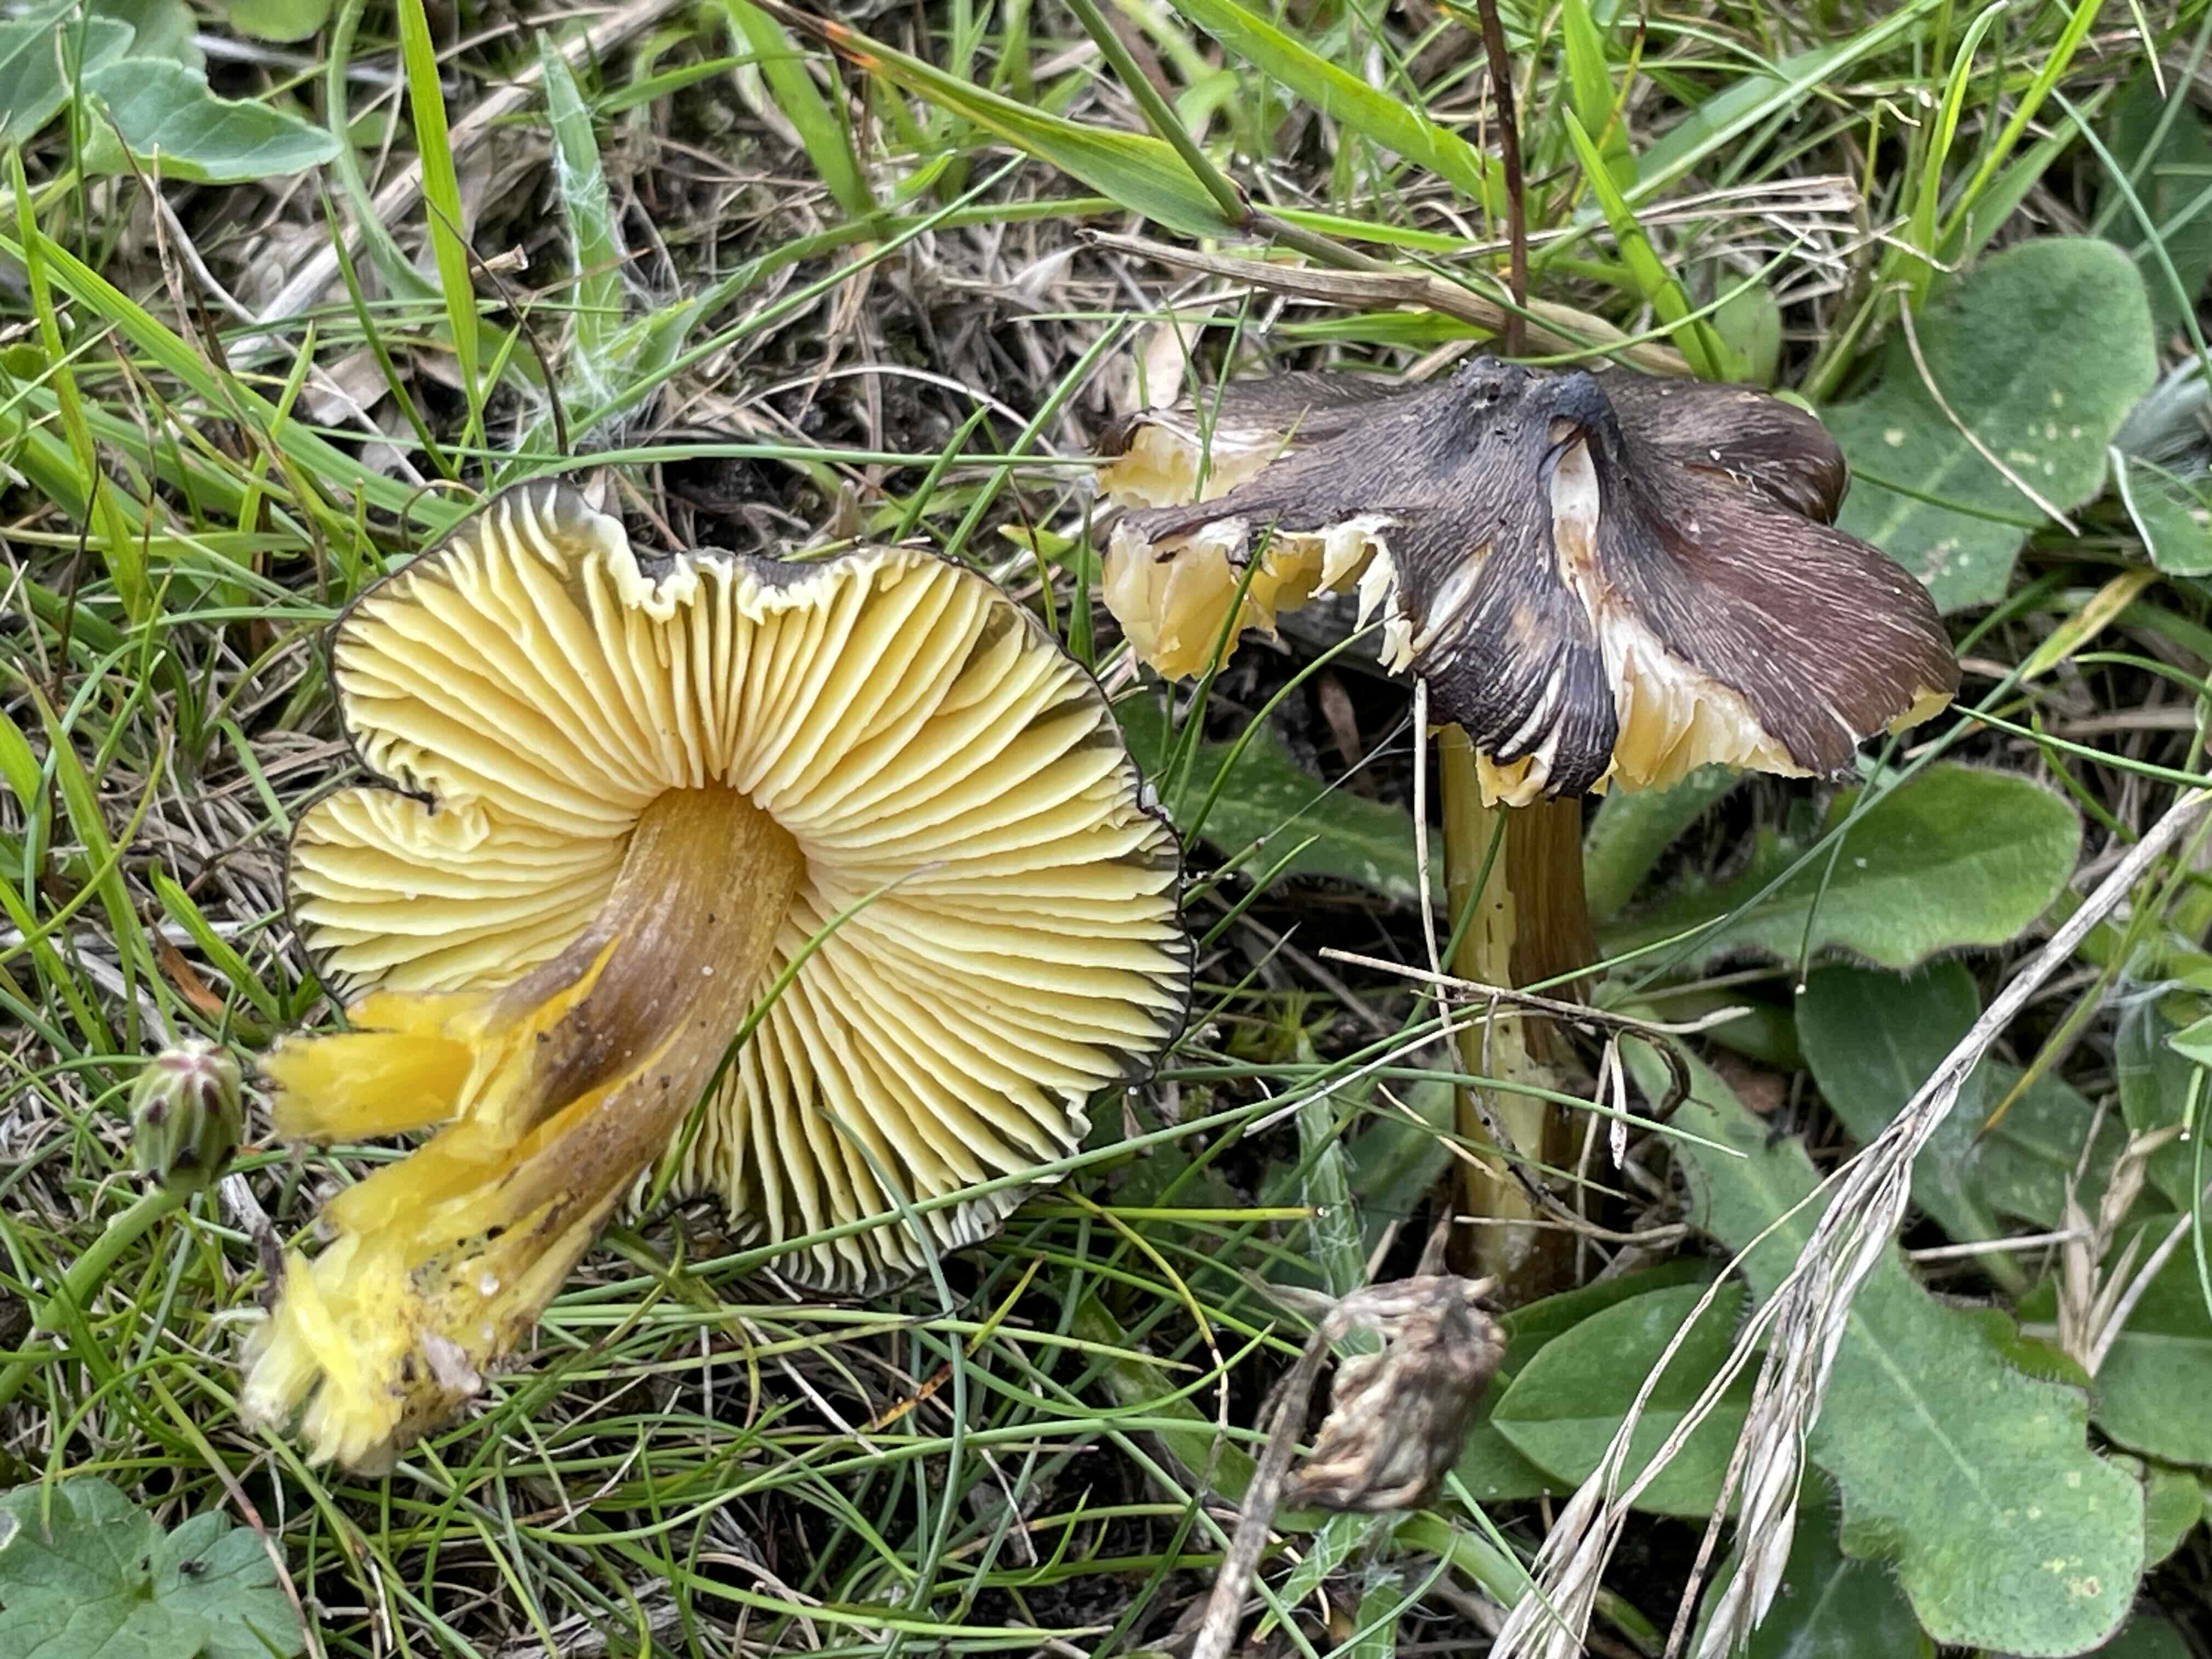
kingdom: Fungi
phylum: Basidiomycota
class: Agaricomycetes
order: Agaricales
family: Hygrophoraceae
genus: Hygrocybe
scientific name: Hygrocybe spadicea
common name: daddelbrun vokshat
